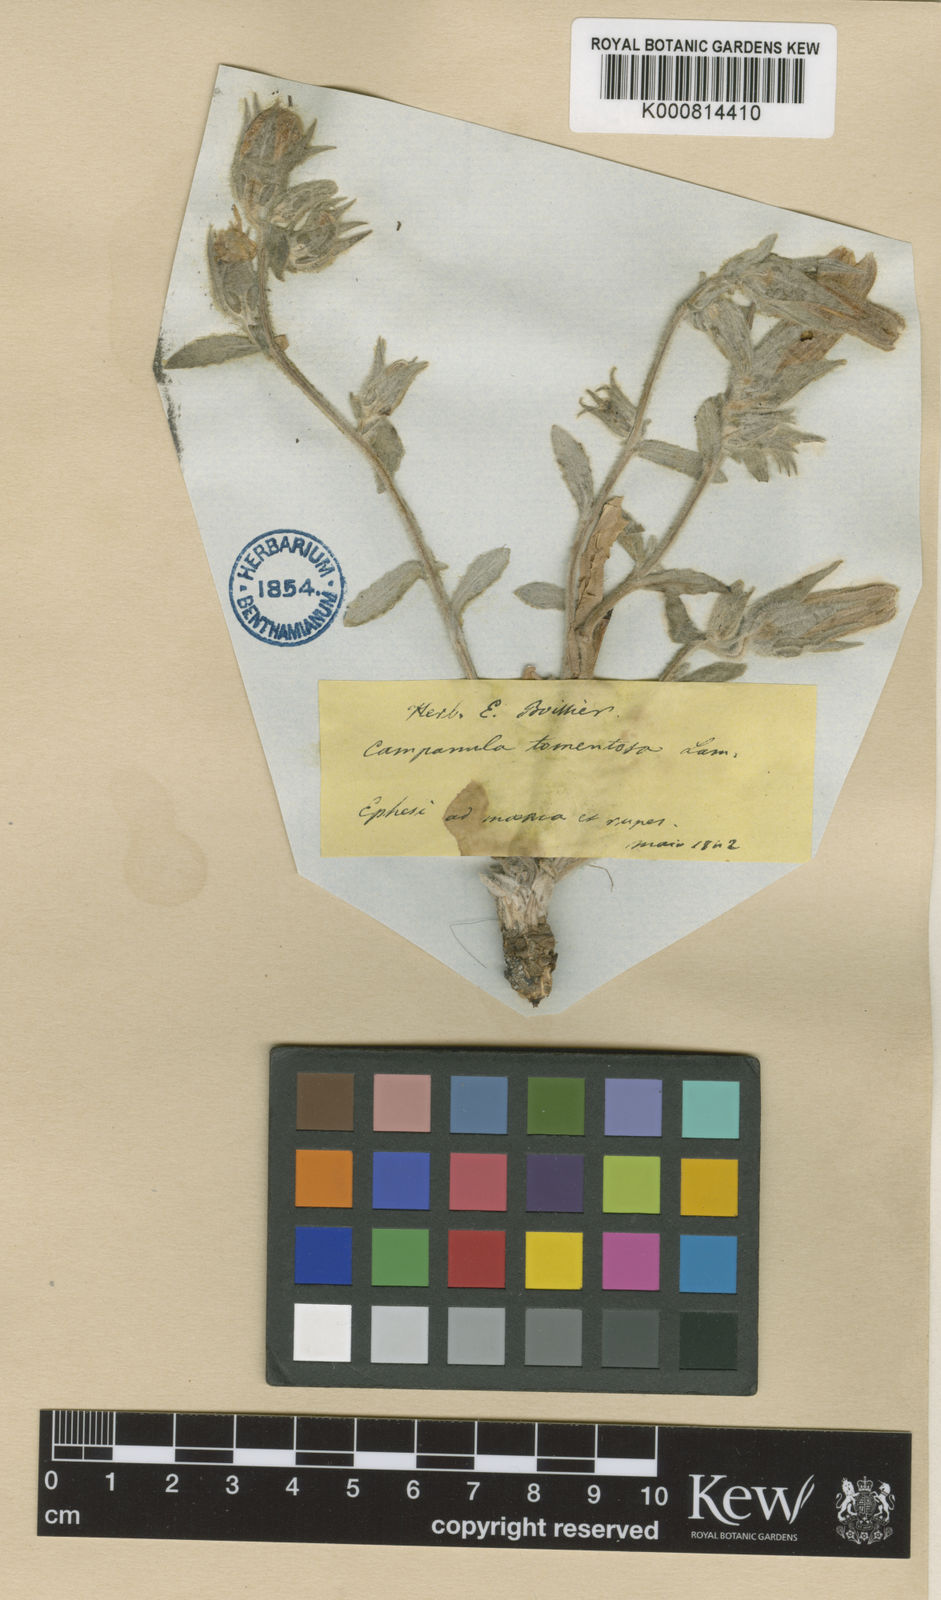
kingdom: Plantae
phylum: Tracheophyta
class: Magnoliopsida
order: Asterales
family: Campanulaceae
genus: Campanula
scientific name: Campanula tomentosa
